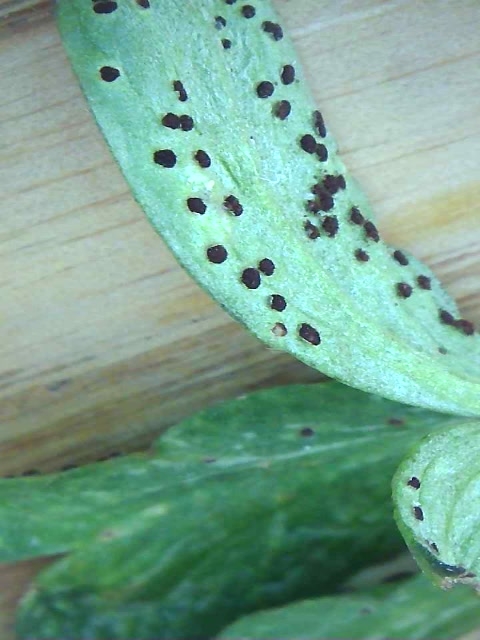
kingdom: Fungi
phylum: Basidiomycota
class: Pucciniomycetes
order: Pucciniales
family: Tranzscheliaceae
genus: Tranzschelia
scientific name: Tranzschelia anemones
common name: anemone-knæksporerust
